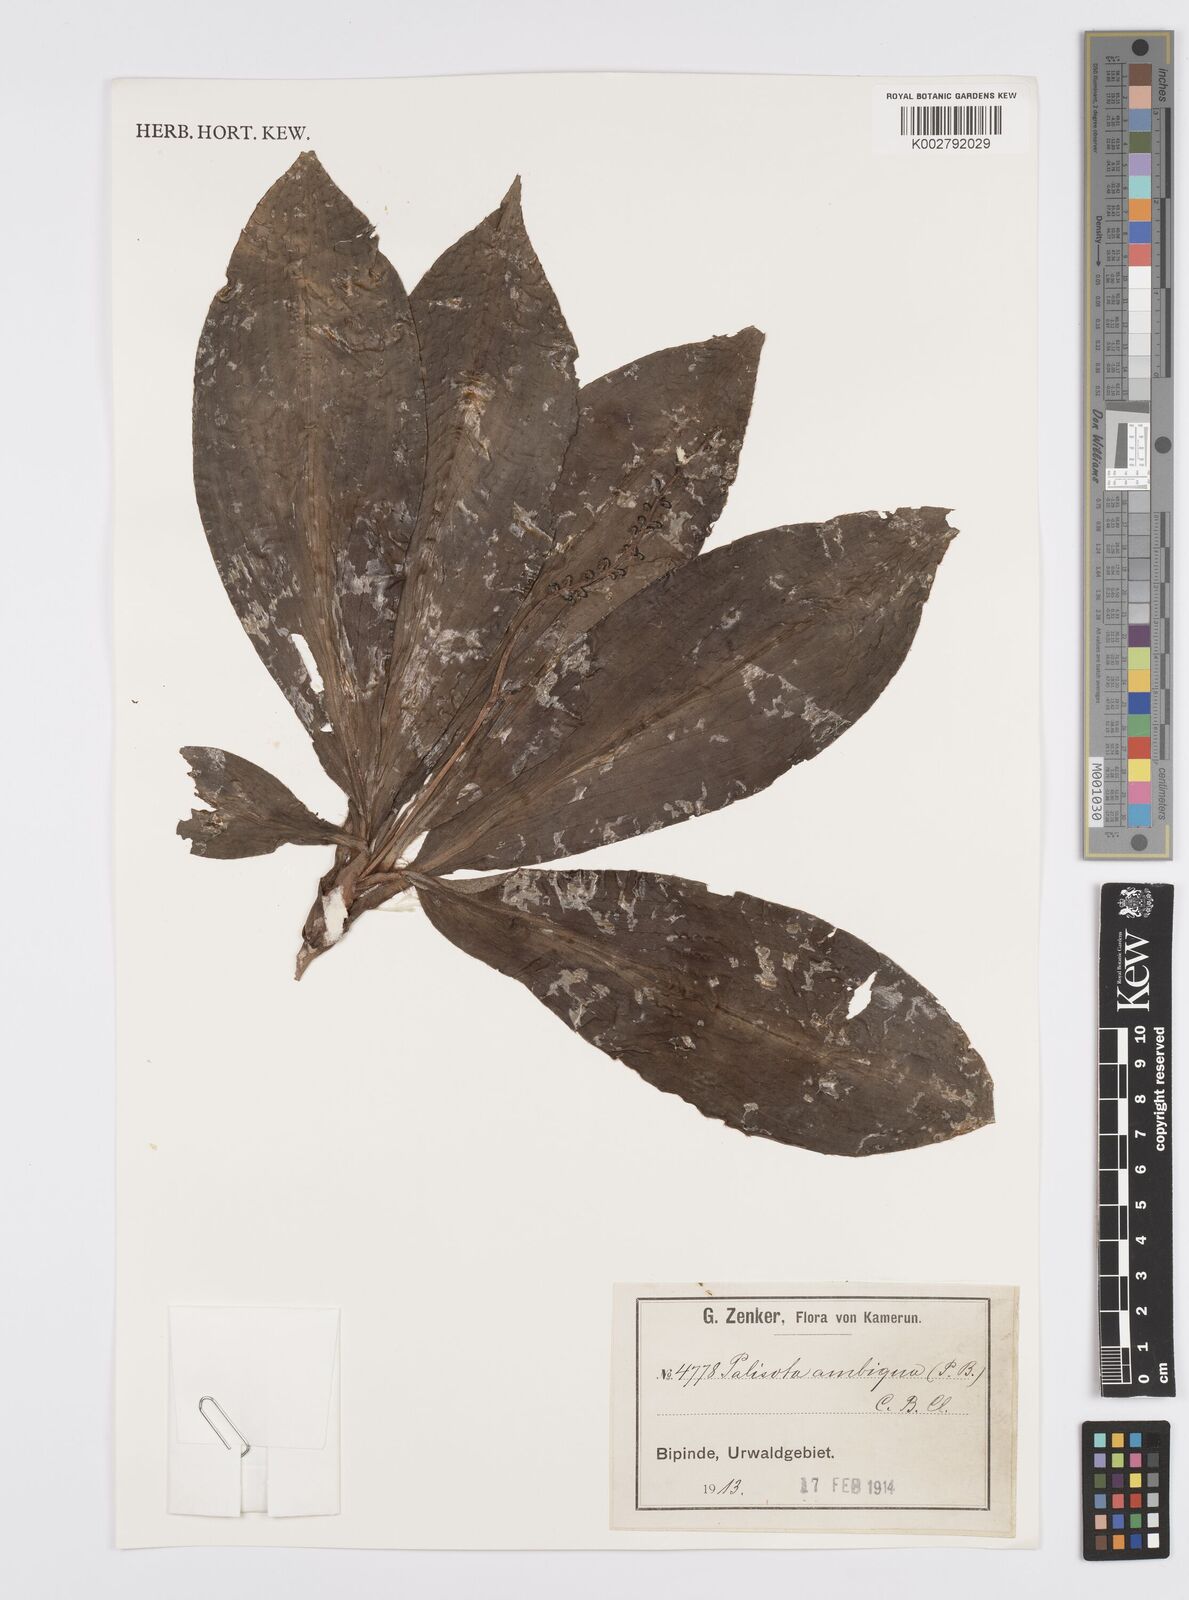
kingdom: Plantae
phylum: Tracheophyta
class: Liliopsida
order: Commelinales
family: Commelinaceae
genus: Palisota
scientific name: Palisota ambigua
